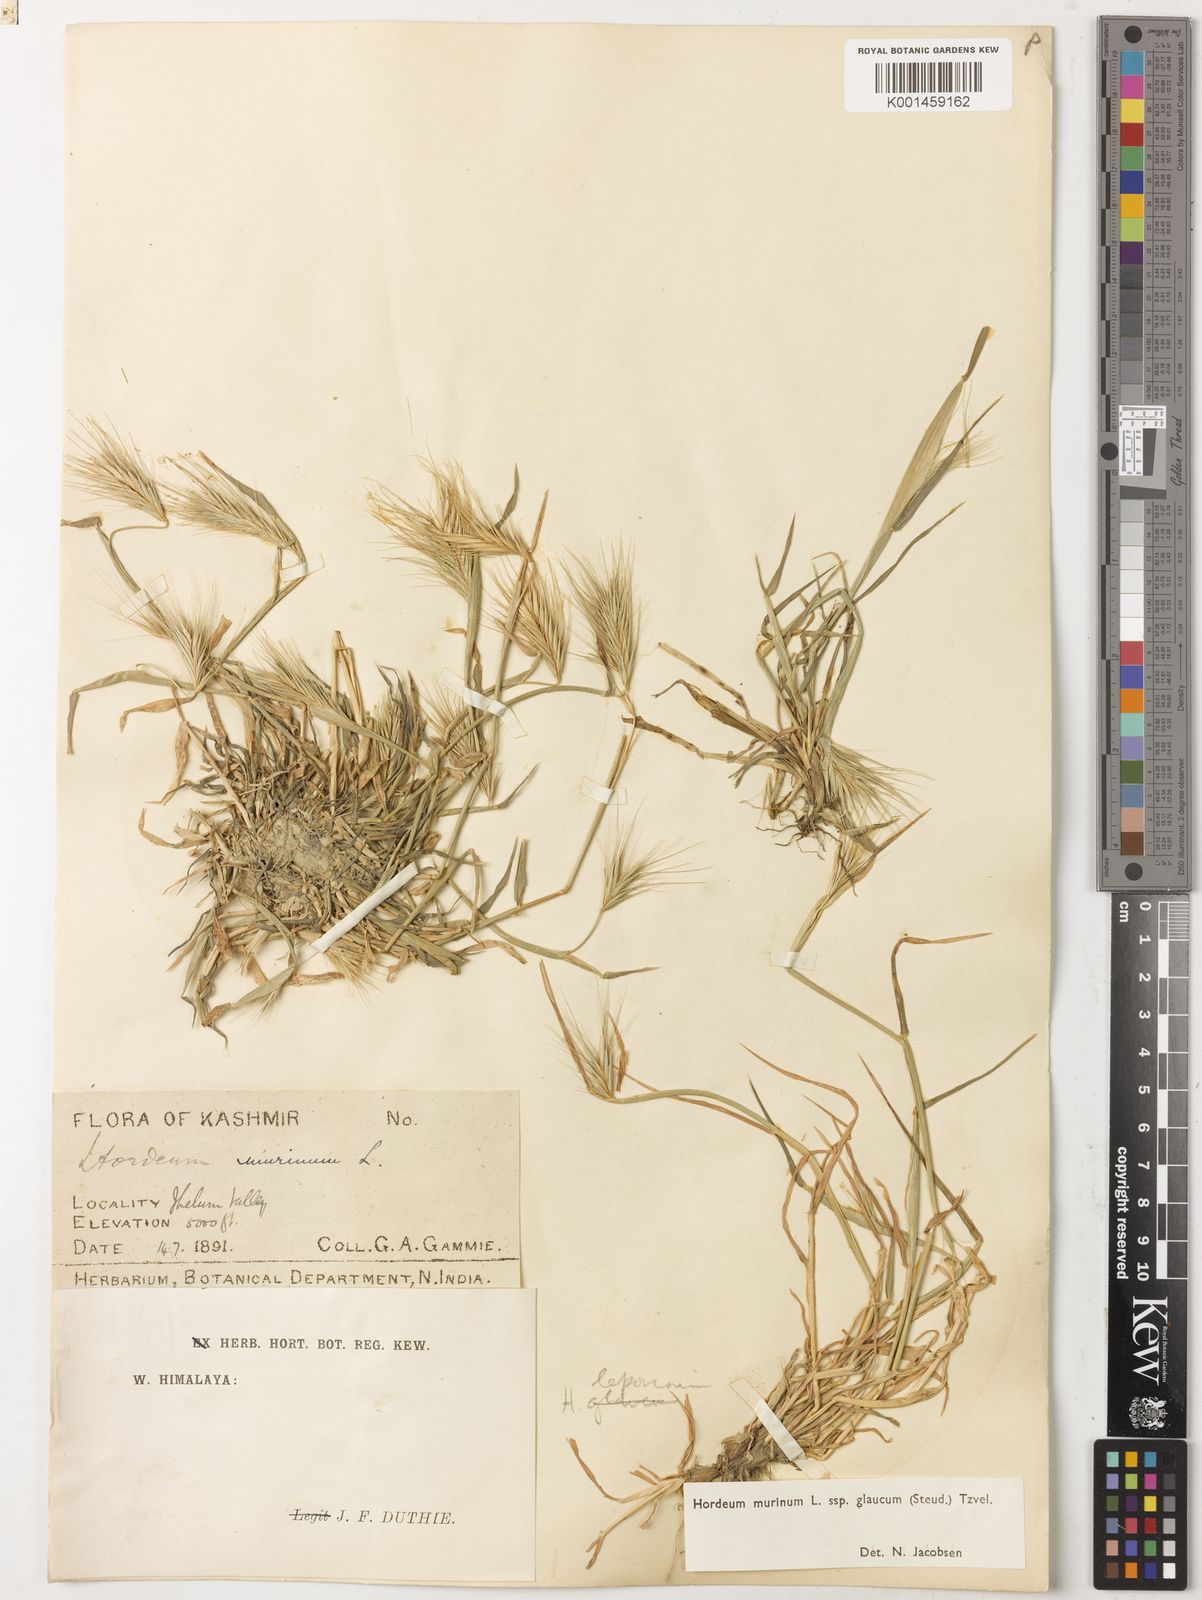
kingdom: Plantae
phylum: Tracheophyta
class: Liliopsida
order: Poales
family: Poaceae
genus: Hordeum
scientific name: Hordeum murinum
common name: Wall barley
